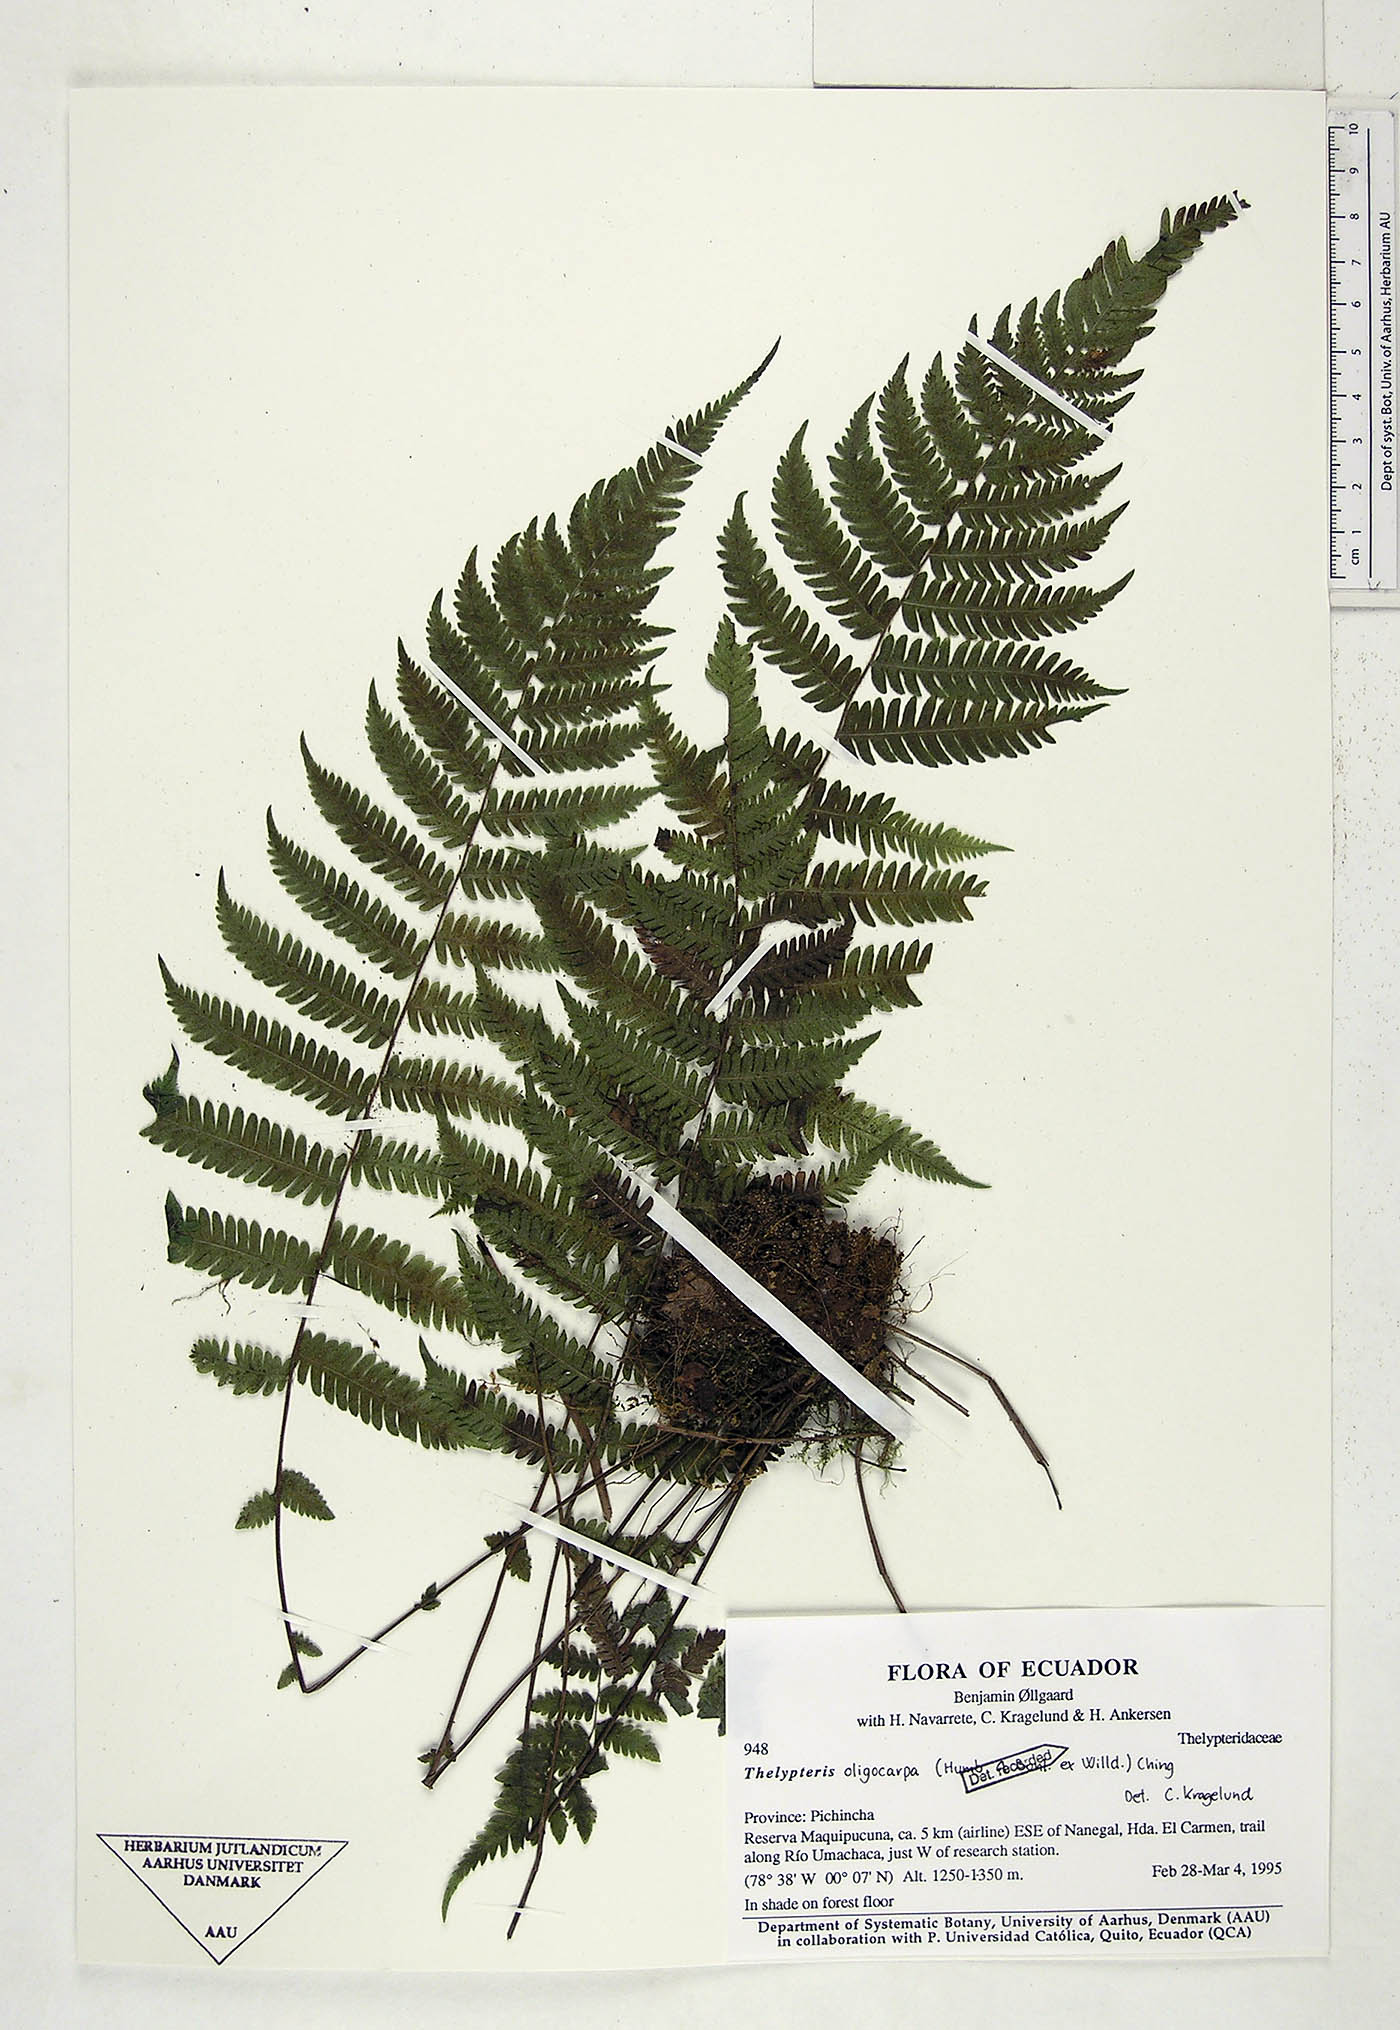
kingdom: Plantae
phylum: Tracheophyta
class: Polypodiopsida
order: Polypodiales
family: Thelypteridaceae
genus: Amauropelta
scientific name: Amauropelta oligocarpa
